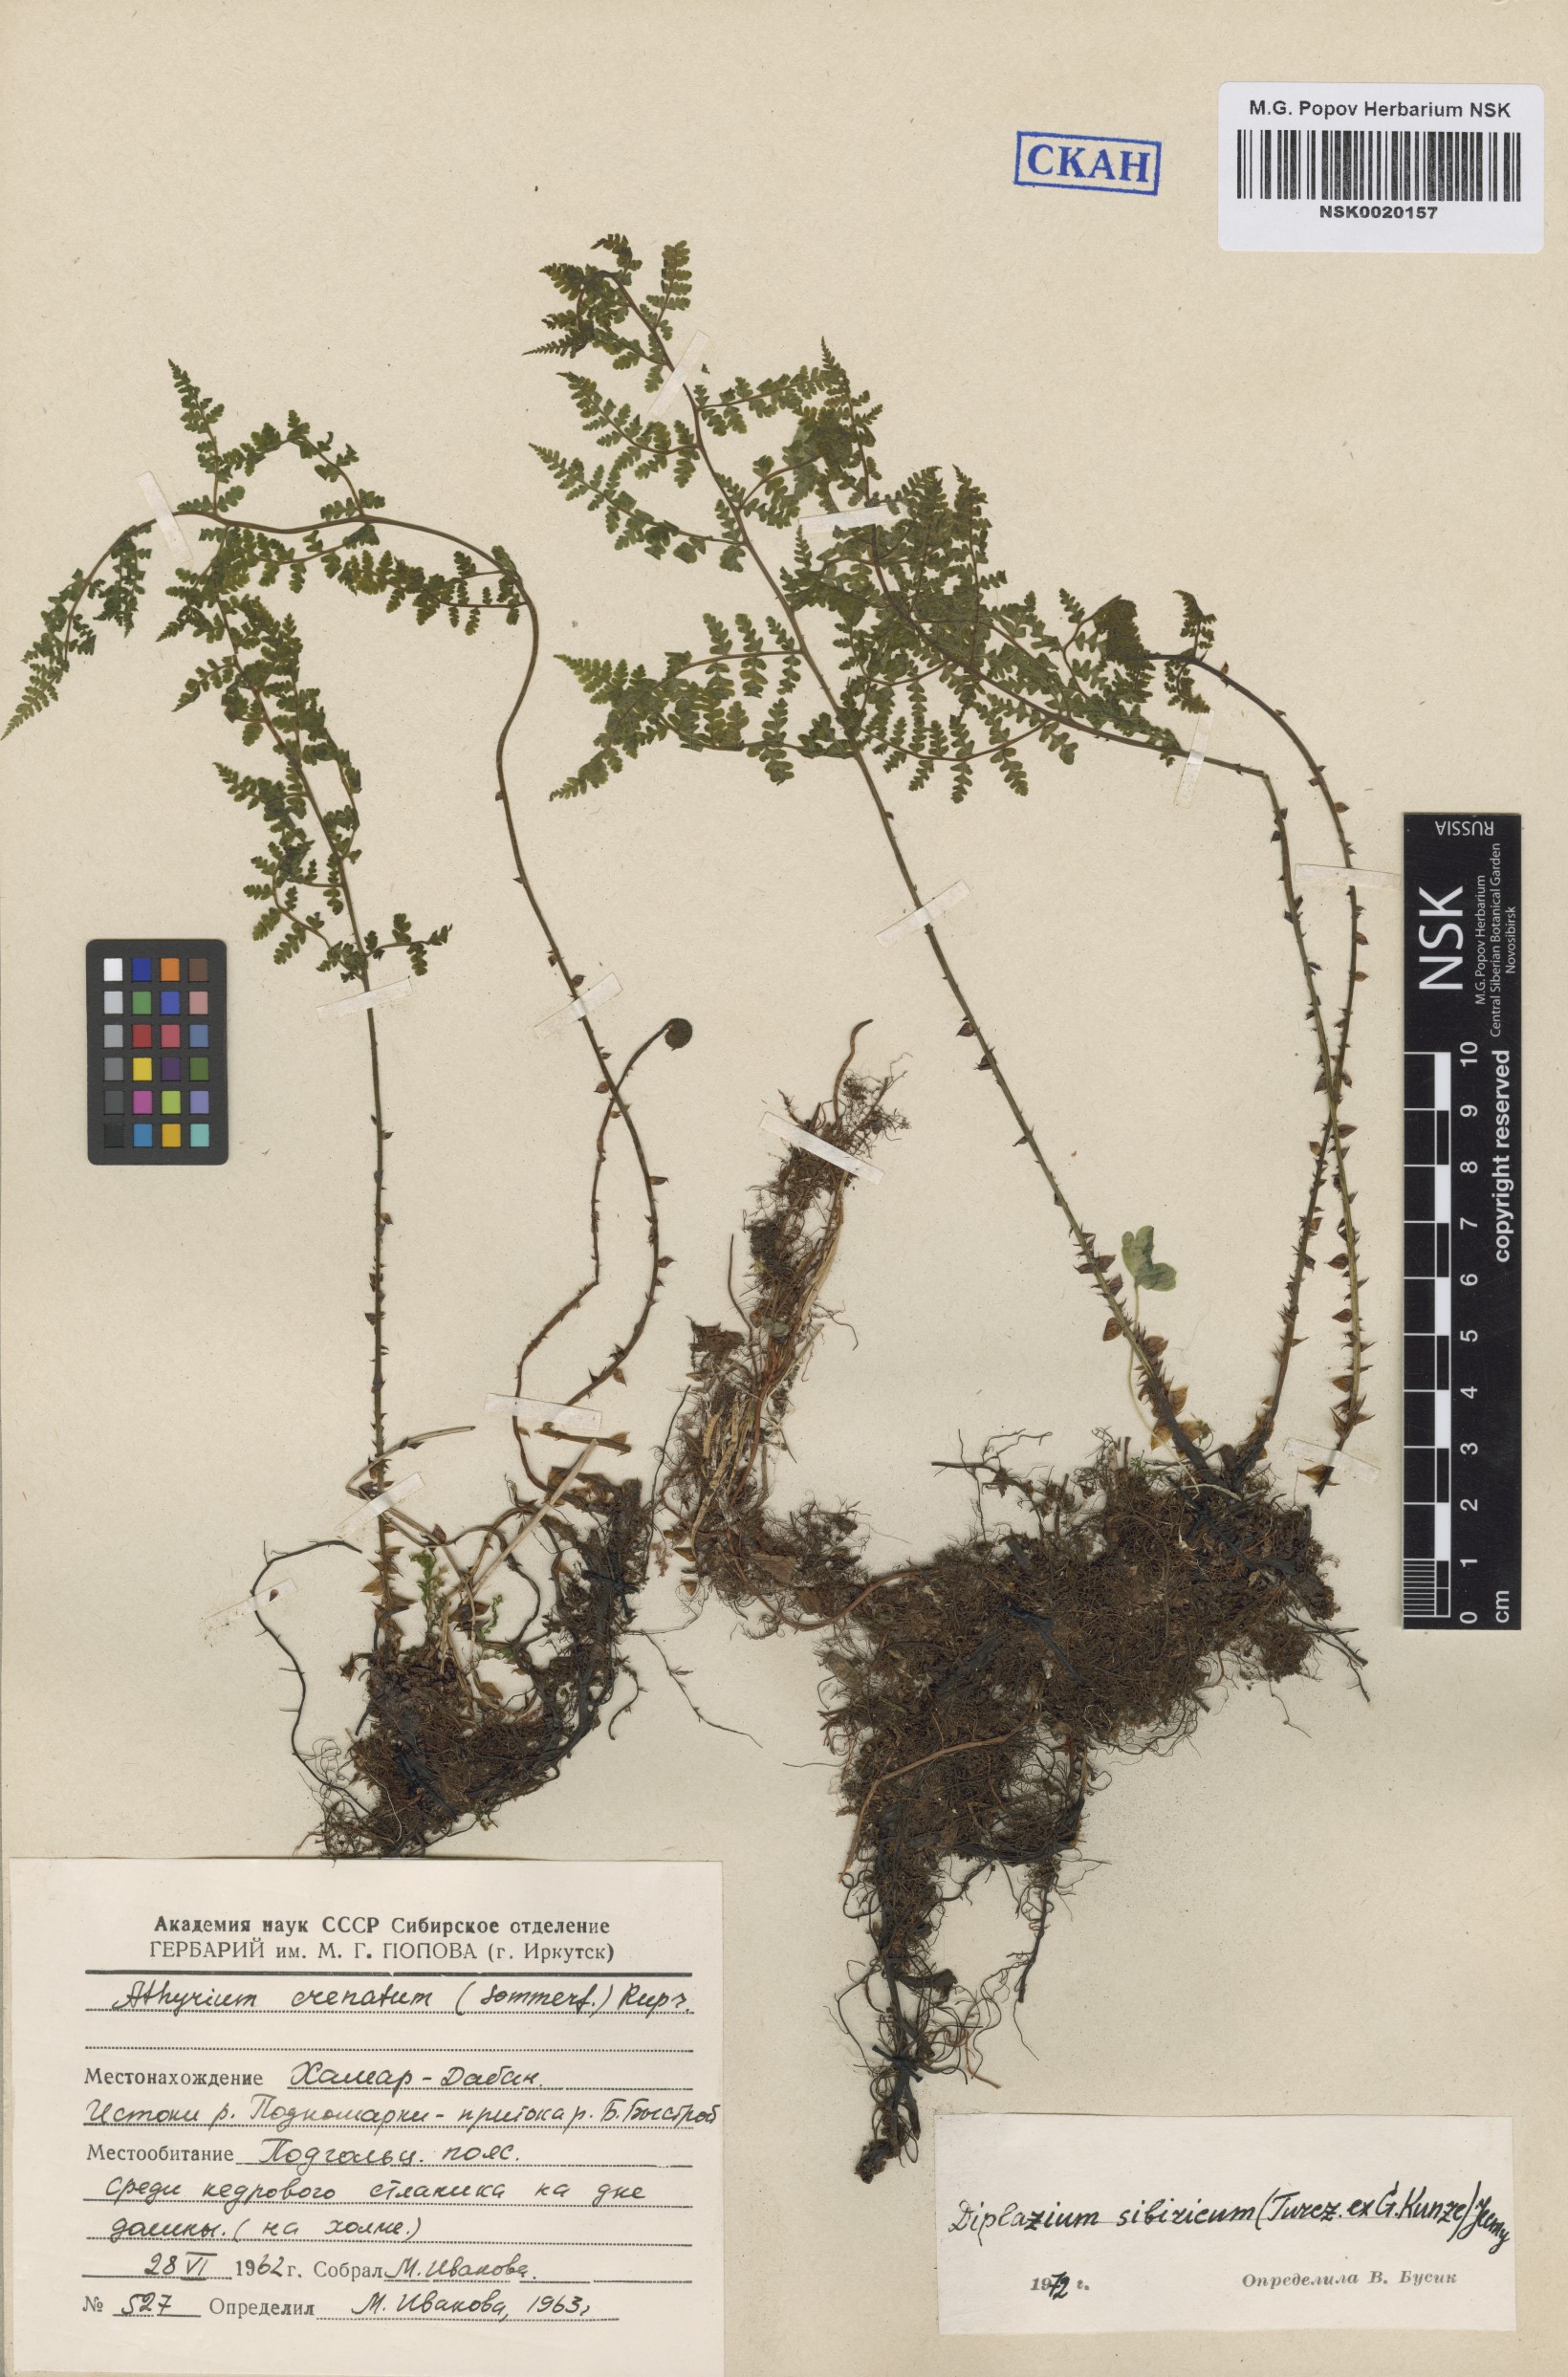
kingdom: Plantae
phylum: Tracheophyta
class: Polypodiopsida
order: Polypodiales
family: Athyriaceae
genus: Diplazium
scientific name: Diplazium sibiricum
